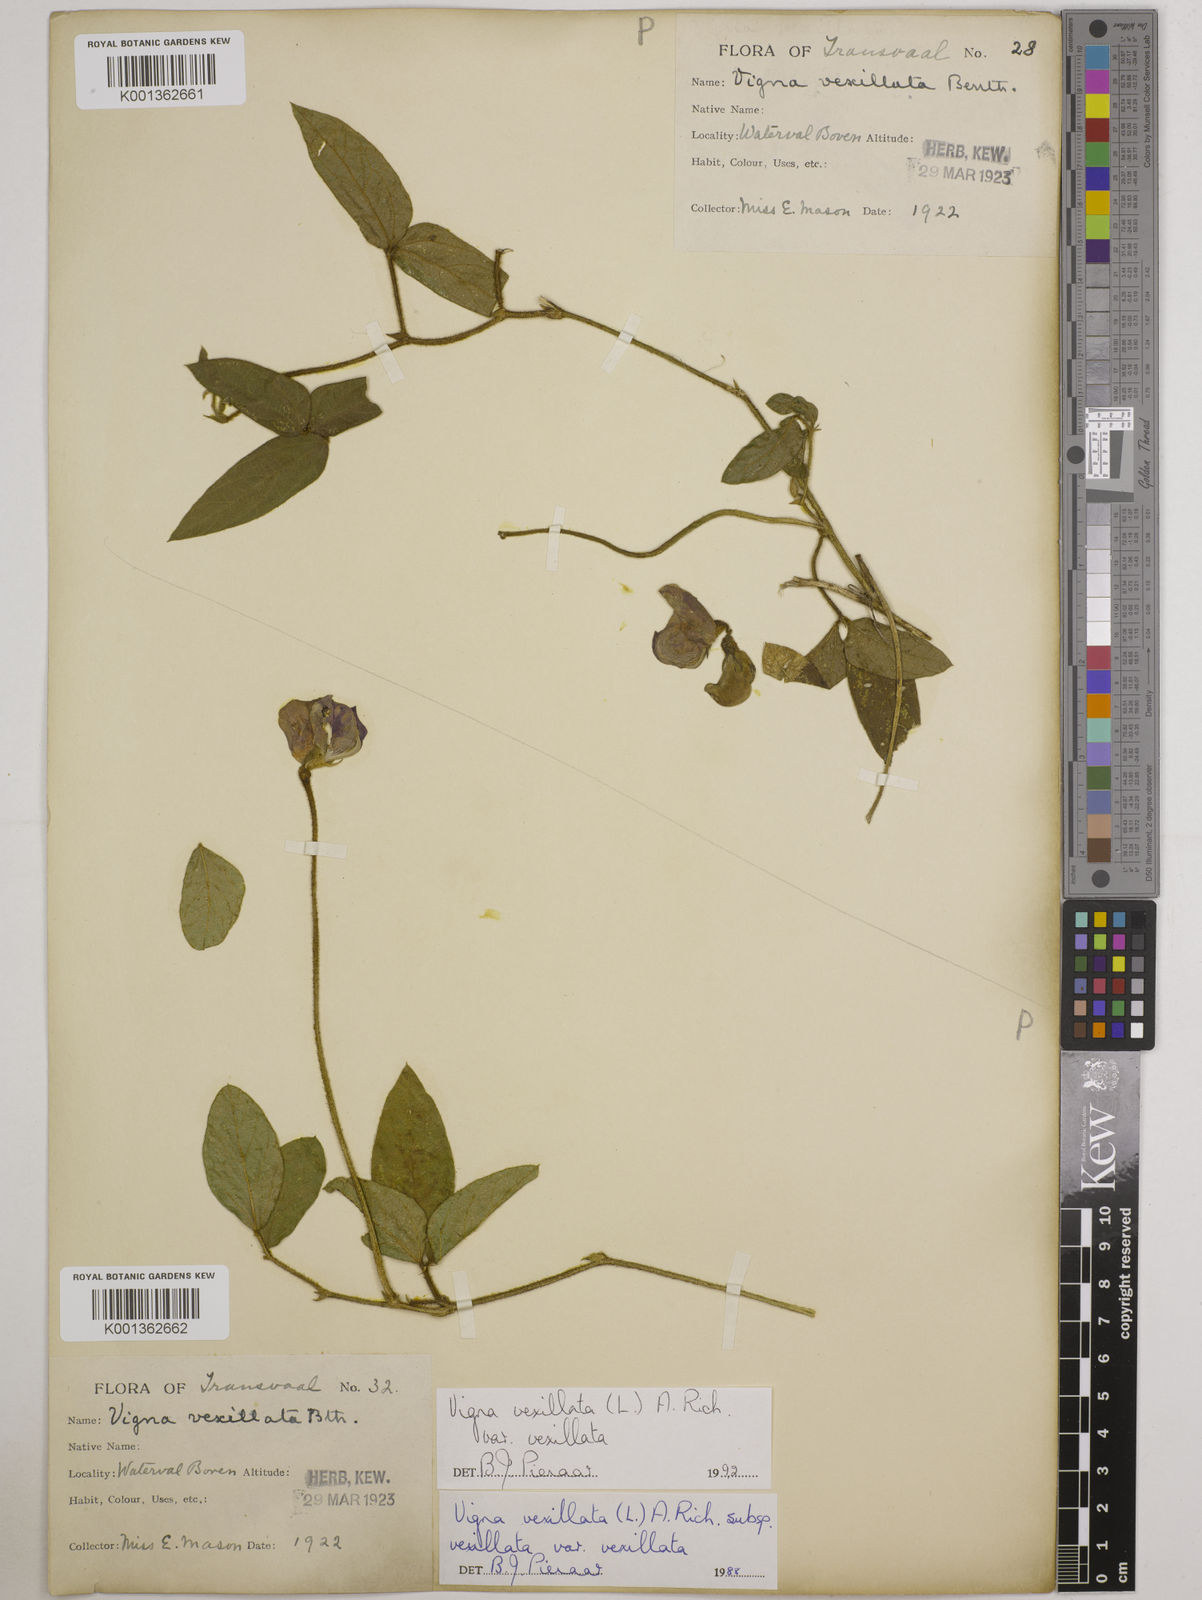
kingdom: Plantae
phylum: Tracheophyta
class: Magnoliopsida
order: Fabales
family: Fabaceae
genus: Vigna
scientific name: Vigna
